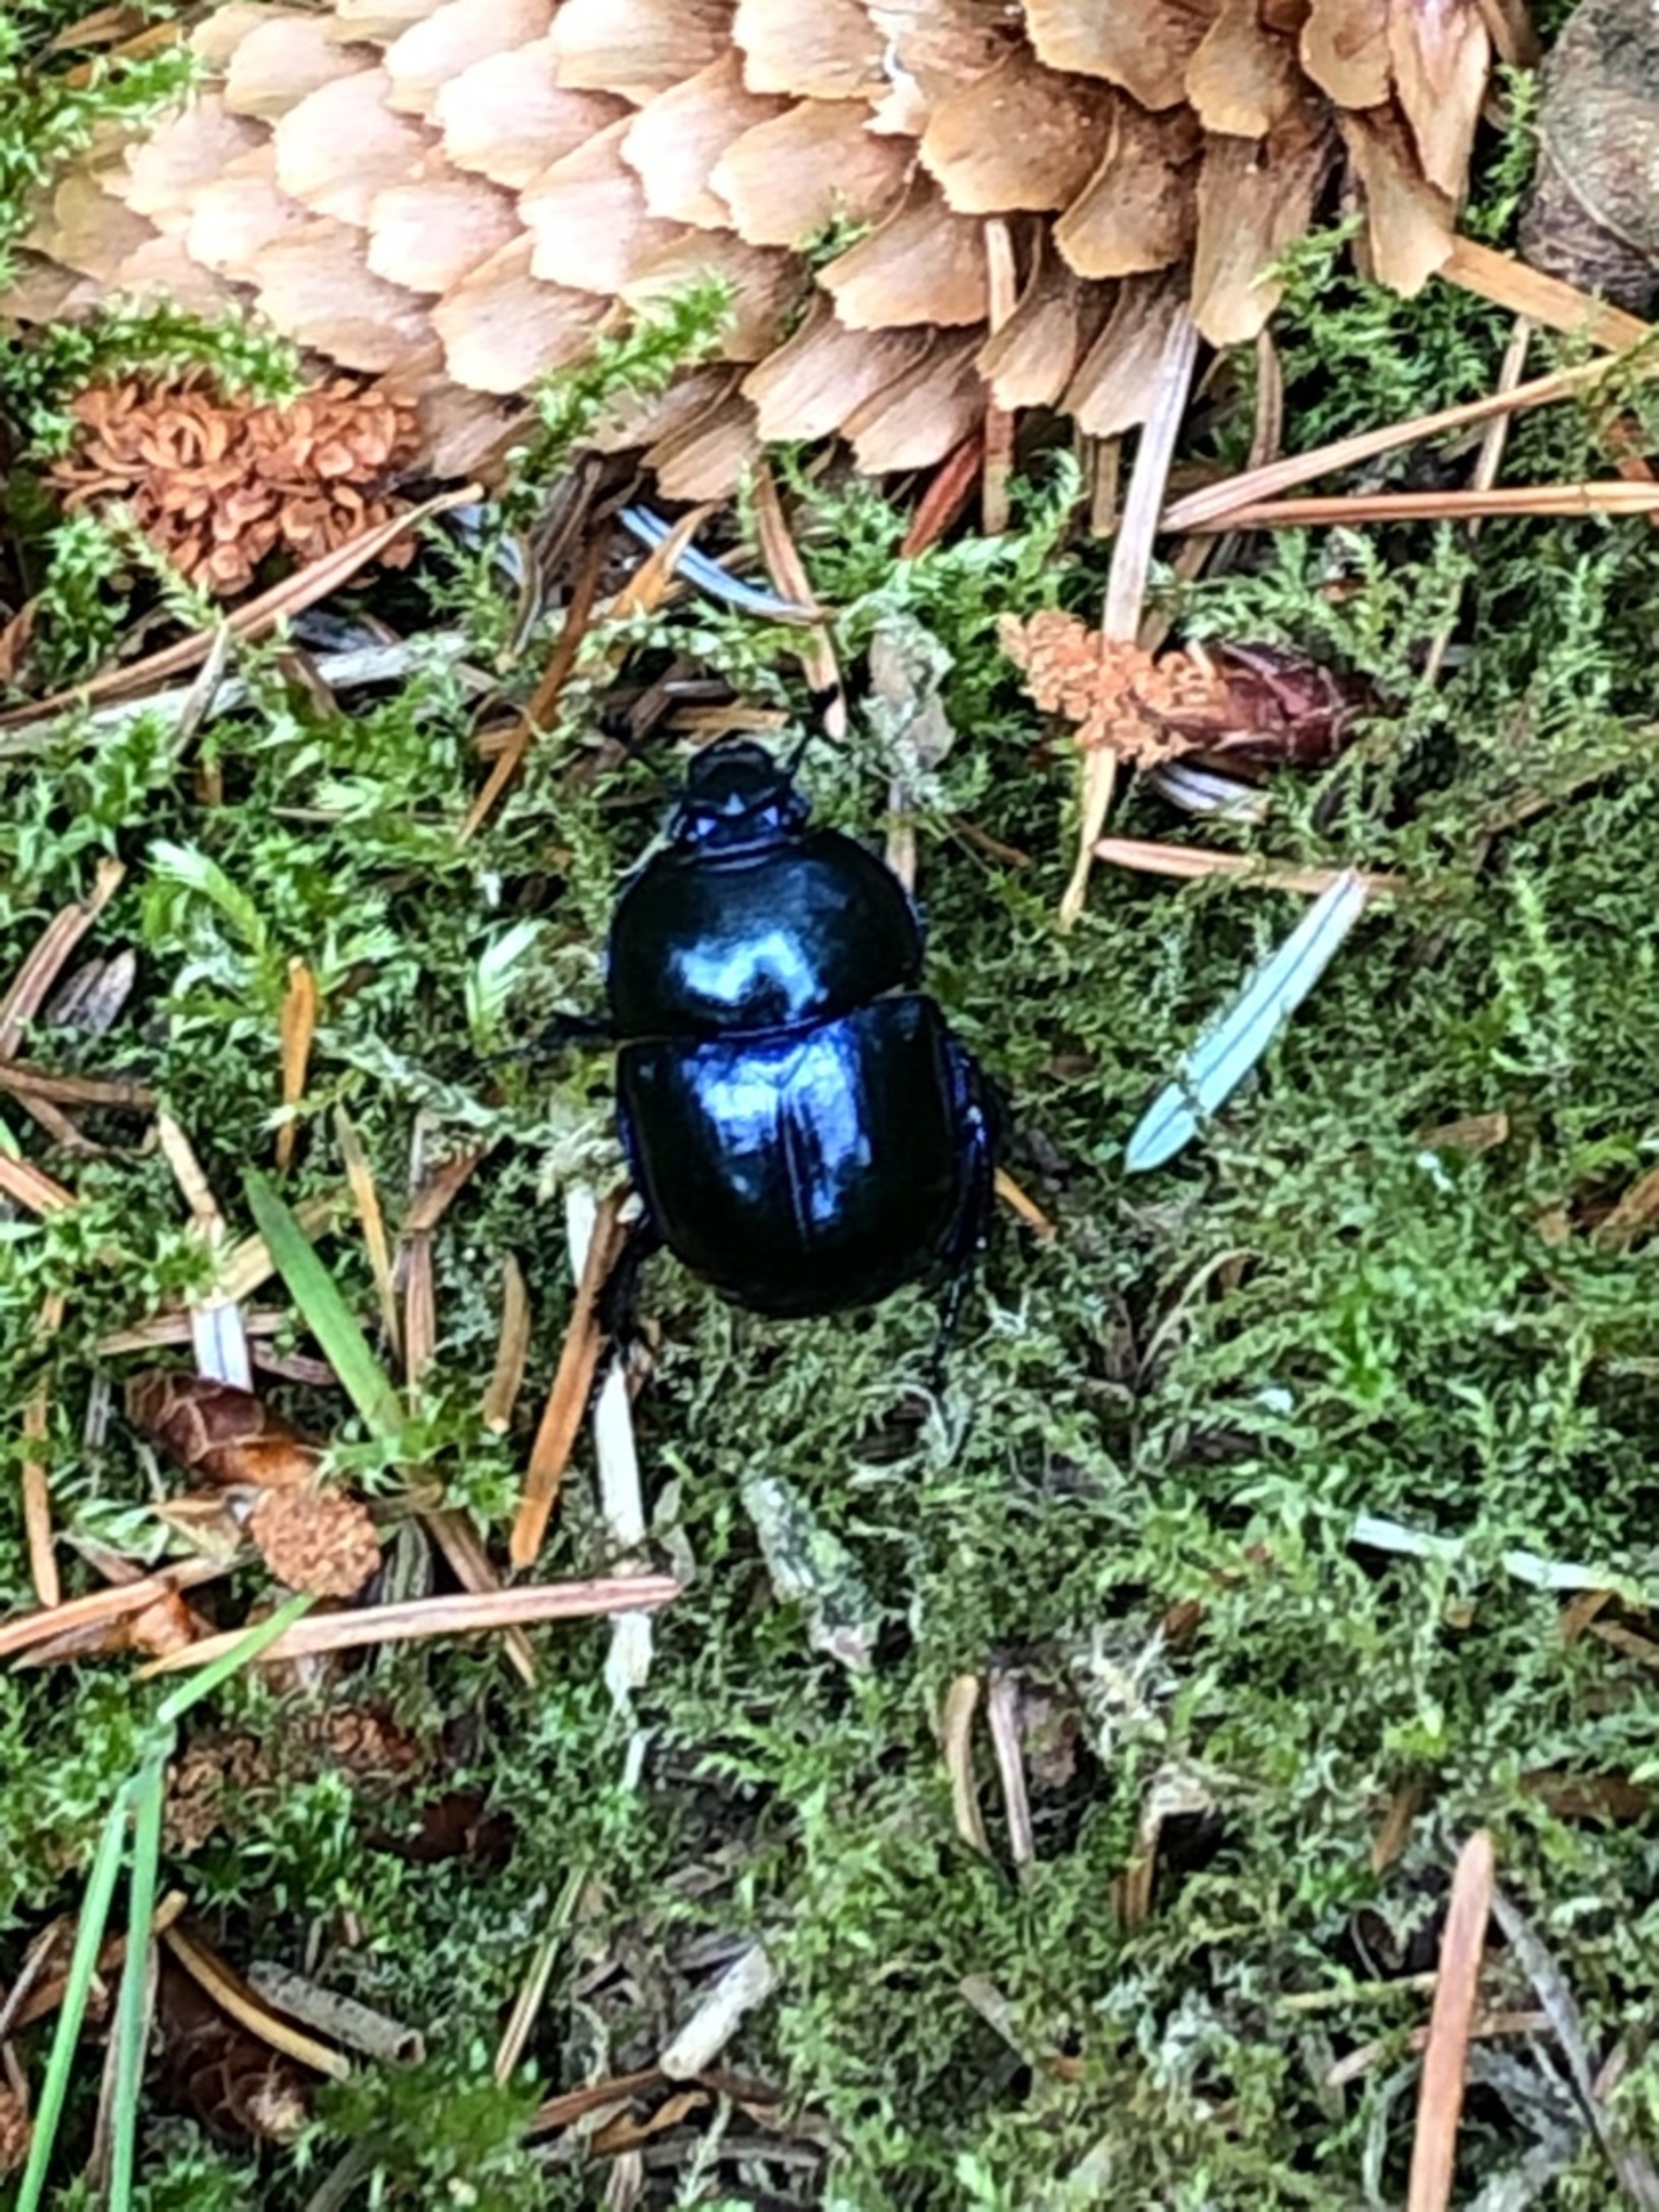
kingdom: Animalia
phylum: Arthropoda
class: Insecta
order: Coleoptera
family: Geotrupidae
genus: Anoplotrupes
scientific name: Anoplotrupes stercorosus
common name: Skovskarnbasse
